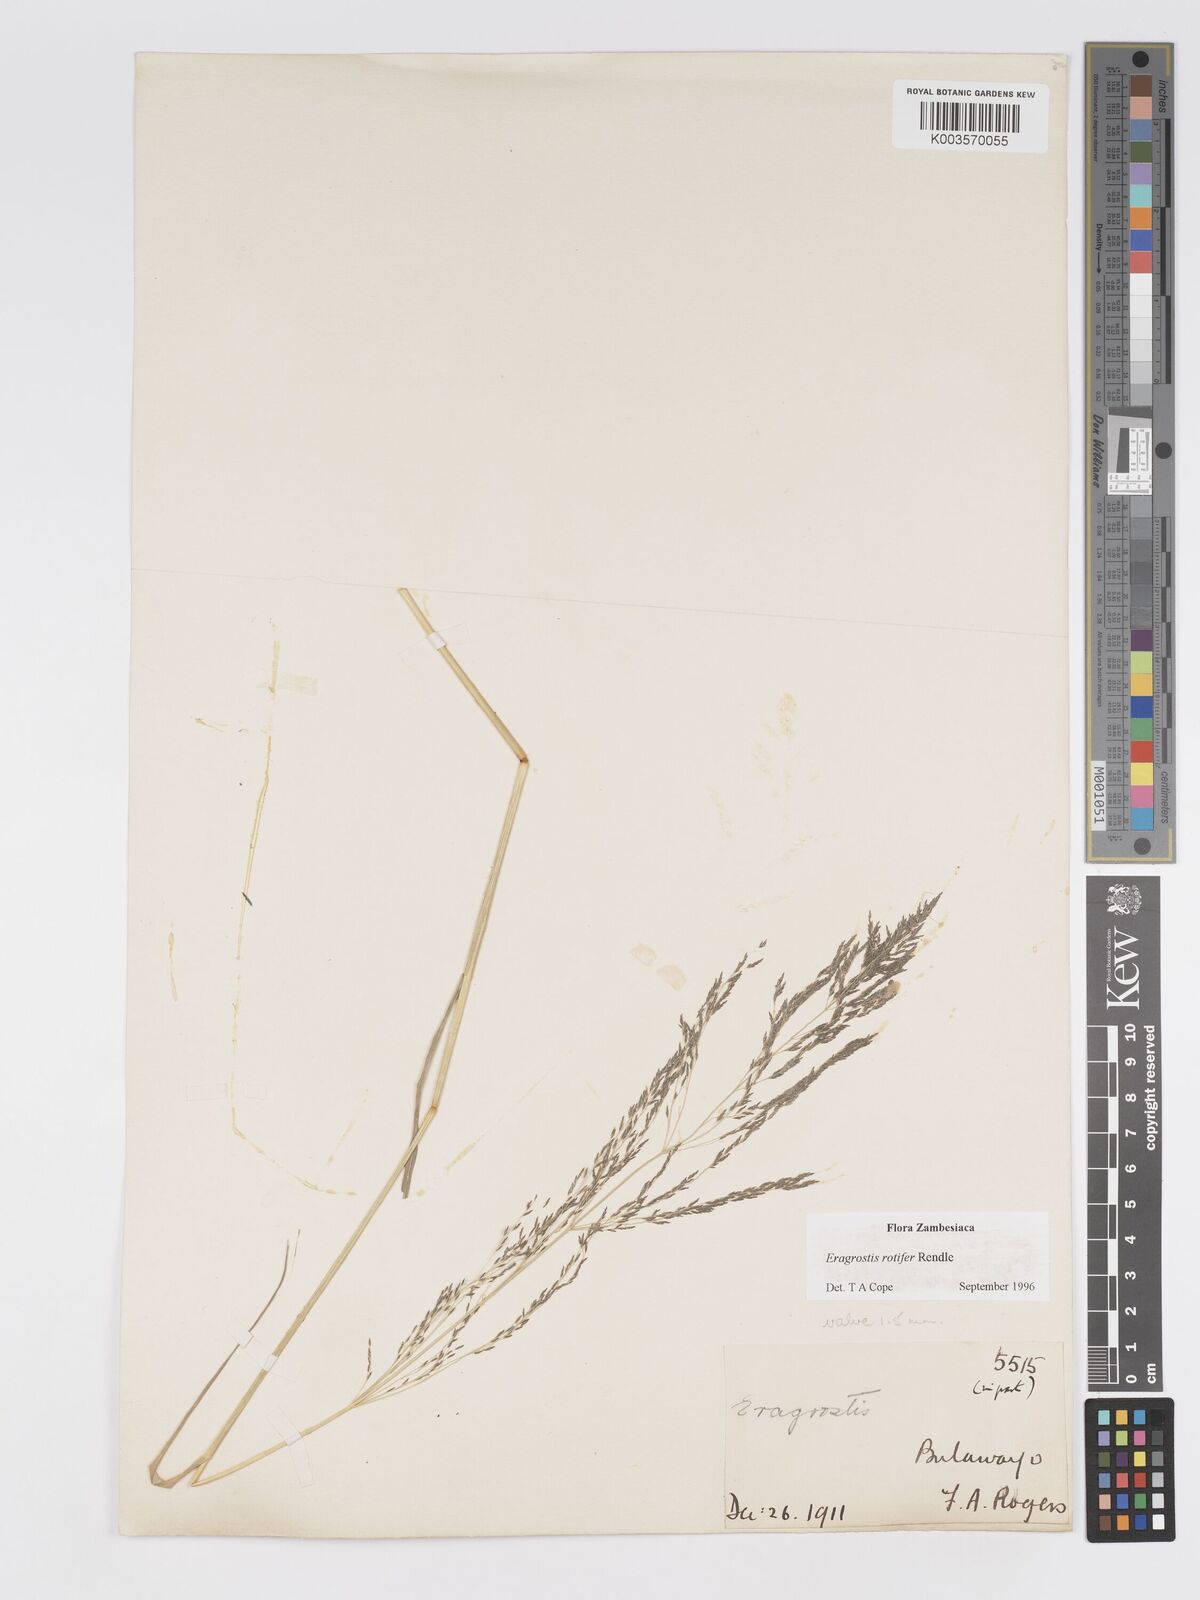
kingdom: Plantae
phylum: Tracheophyta
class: Liliopsida
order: Poales
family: Poaceae
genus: Eragrostis
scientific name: Eragrostis rotifer
